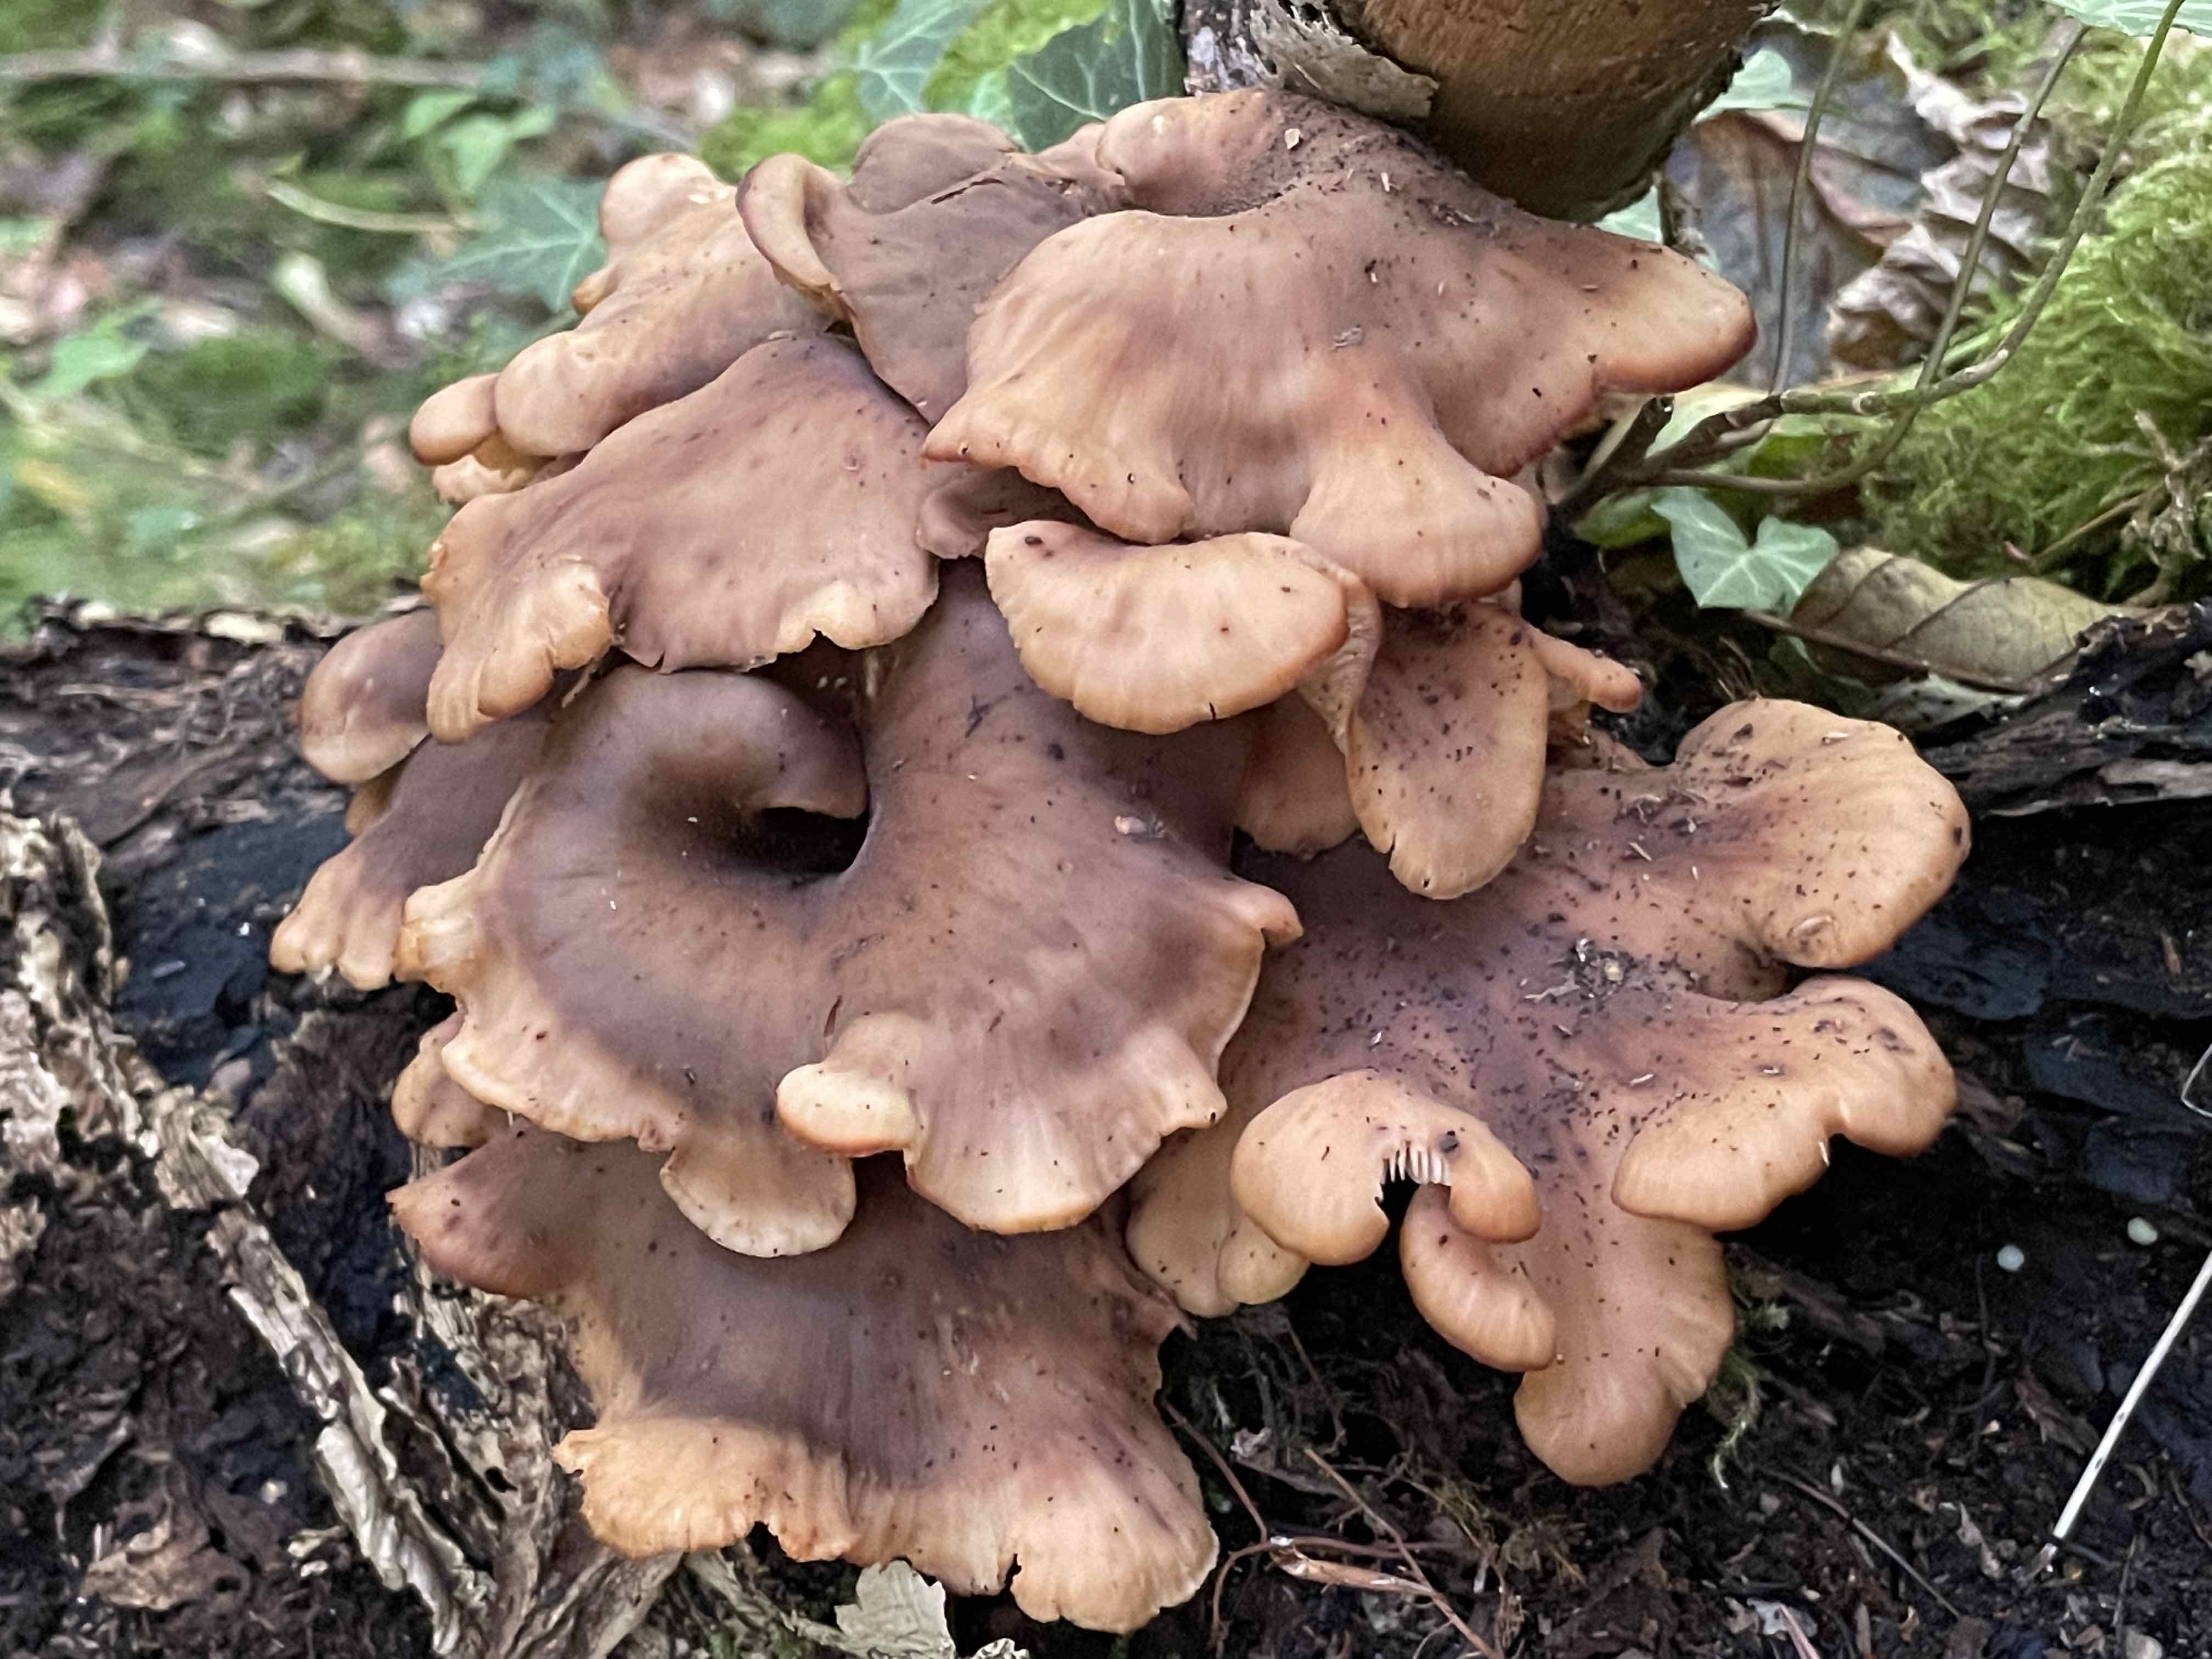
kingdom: Fungi
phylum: Basidiomycota
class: Agaricomycetes
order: Russulales
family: Auriscalpiaceae
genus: Lentinellus
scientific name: Lentinellus cochleatus
